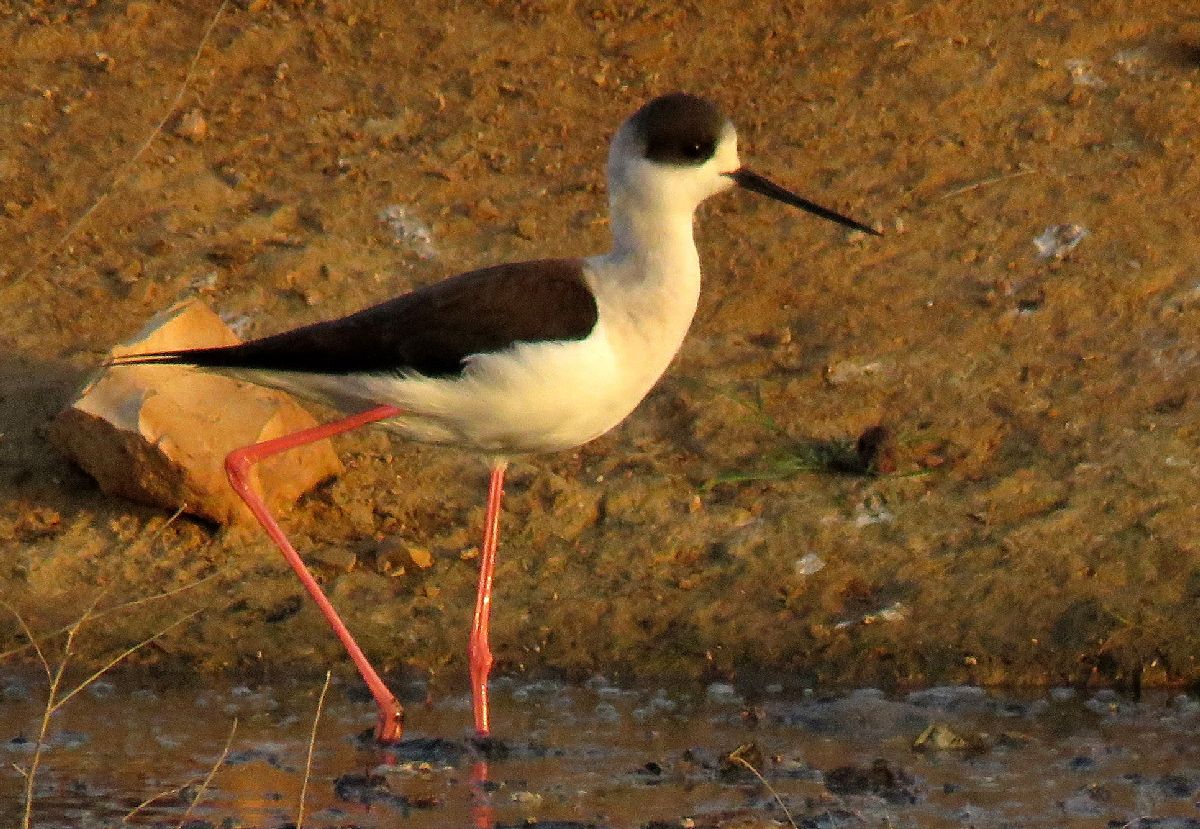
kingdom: Animalia
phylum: Chordata
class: Aves
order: Charadriiformes
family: Recurvirostridae
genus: Himantopus
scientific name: Himantopus himantopus
